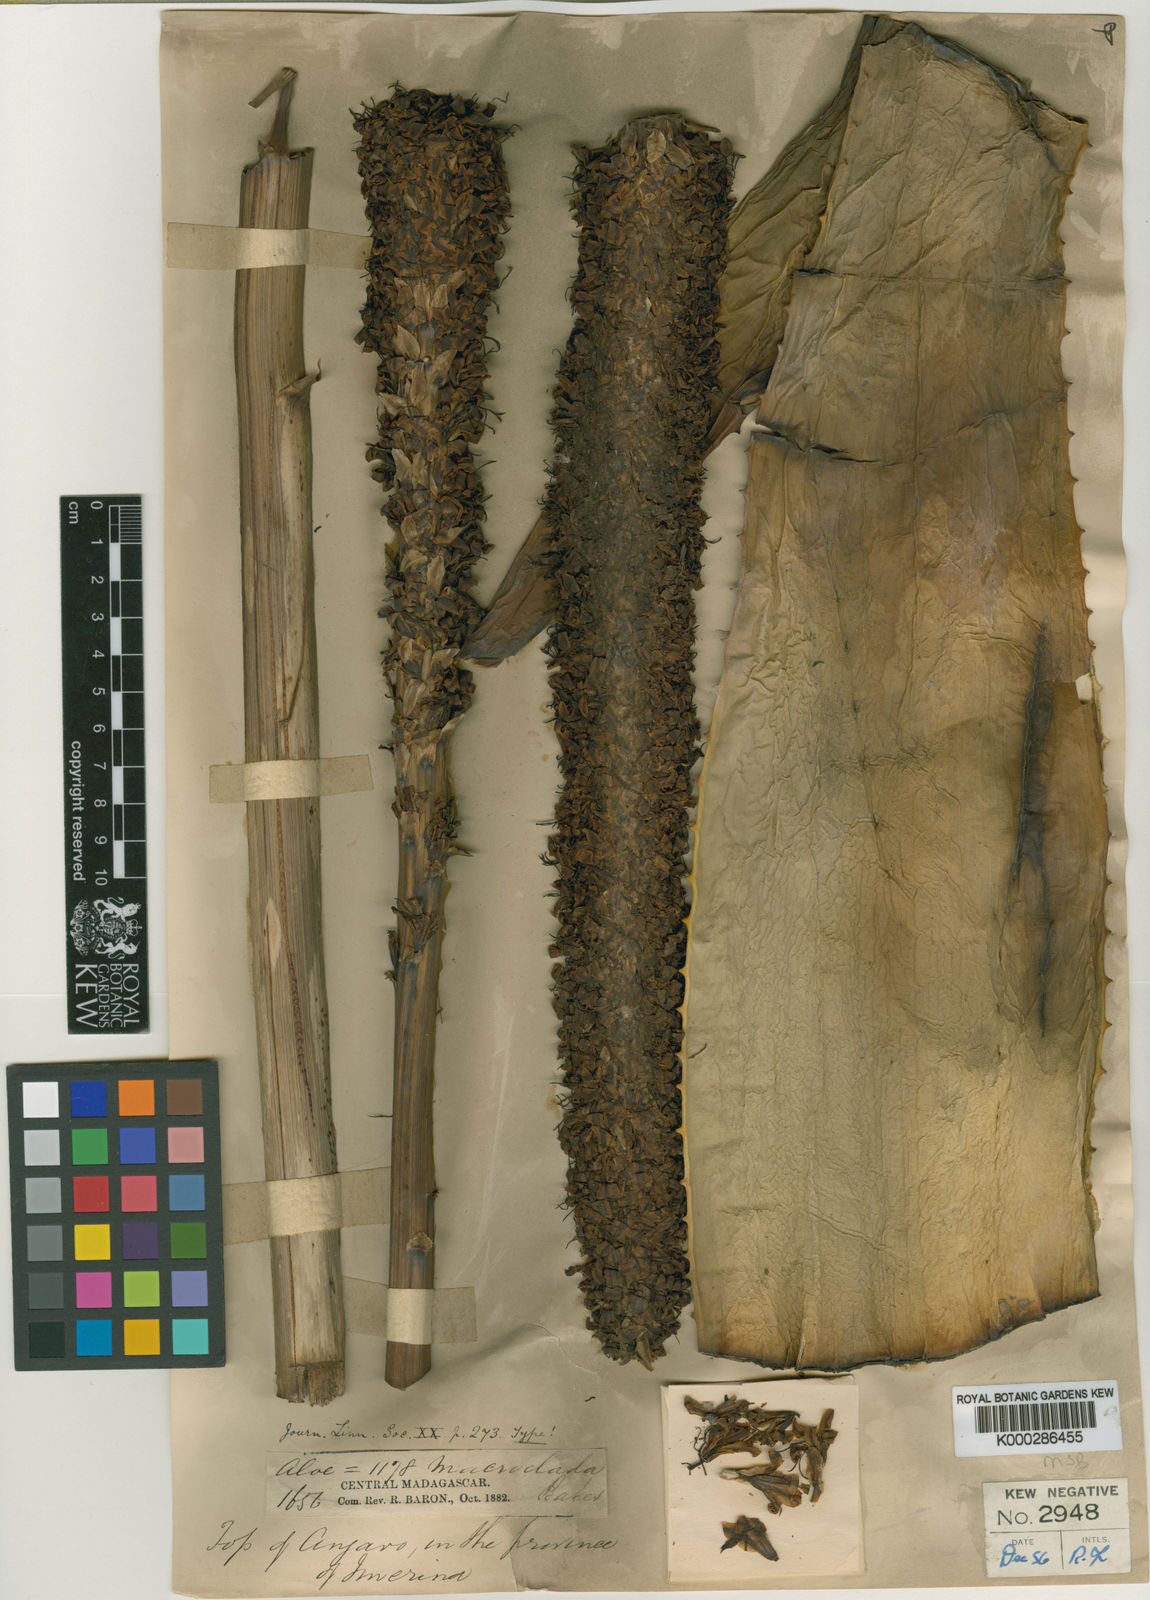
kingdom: Plantae
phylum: Tracheophyta
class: Liliopsida
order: Asparagales
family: Asphodelaceae
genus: Aloe
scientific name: Aloe macroclada
